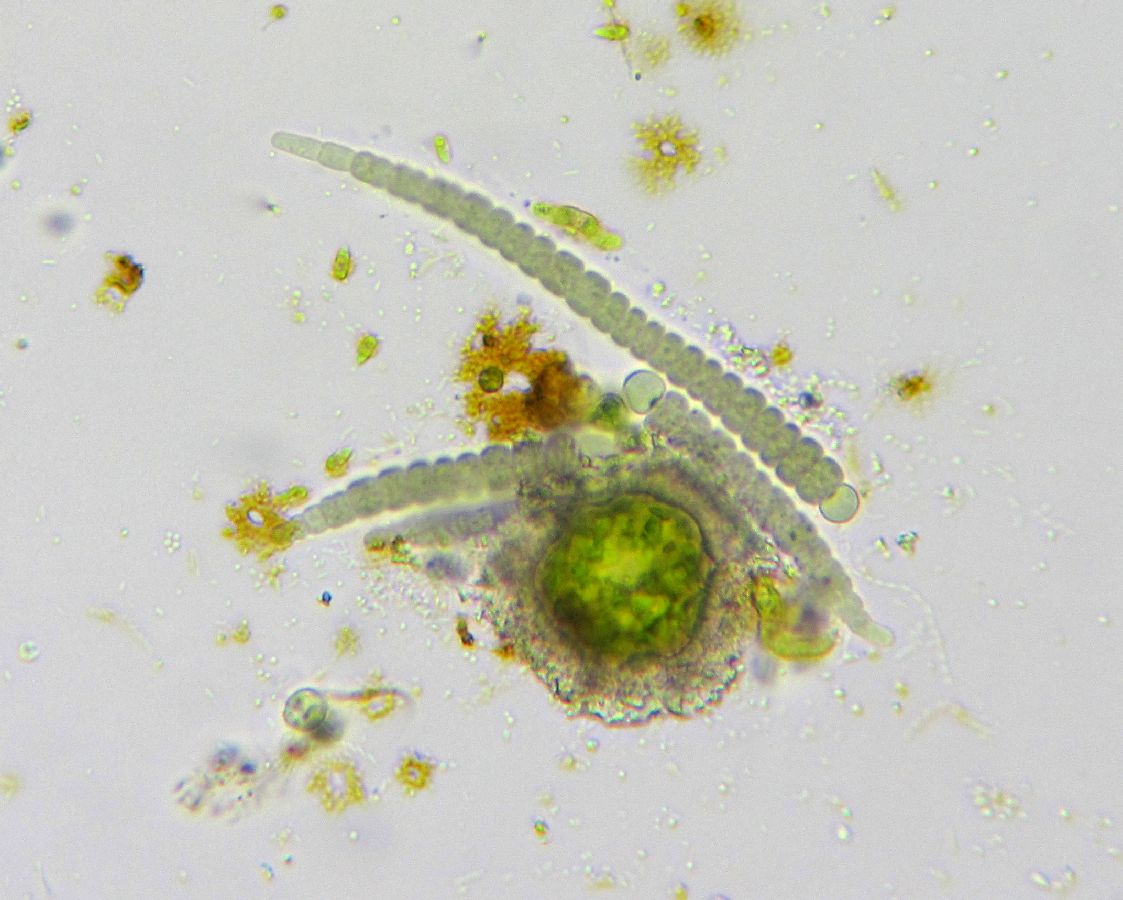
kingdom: Bacteria
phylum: Cyanobacteria
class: Cyanobacteriia
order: Cyanobacteriales
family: Aphanizomenonaceae
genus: Gloeotrichia
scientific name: Gloeotrichia
